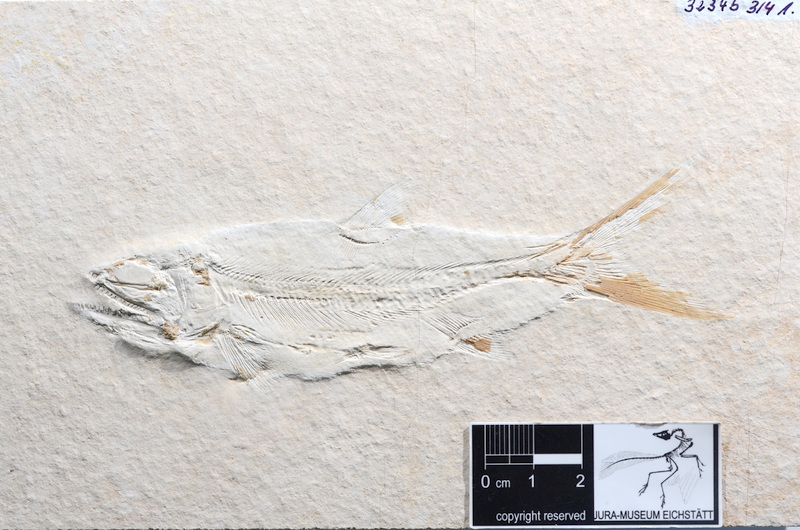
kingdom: Animalia
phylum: Chordata
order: Amiiformes
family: Caturidae
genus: Caturus
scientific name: Caturus furcatus
